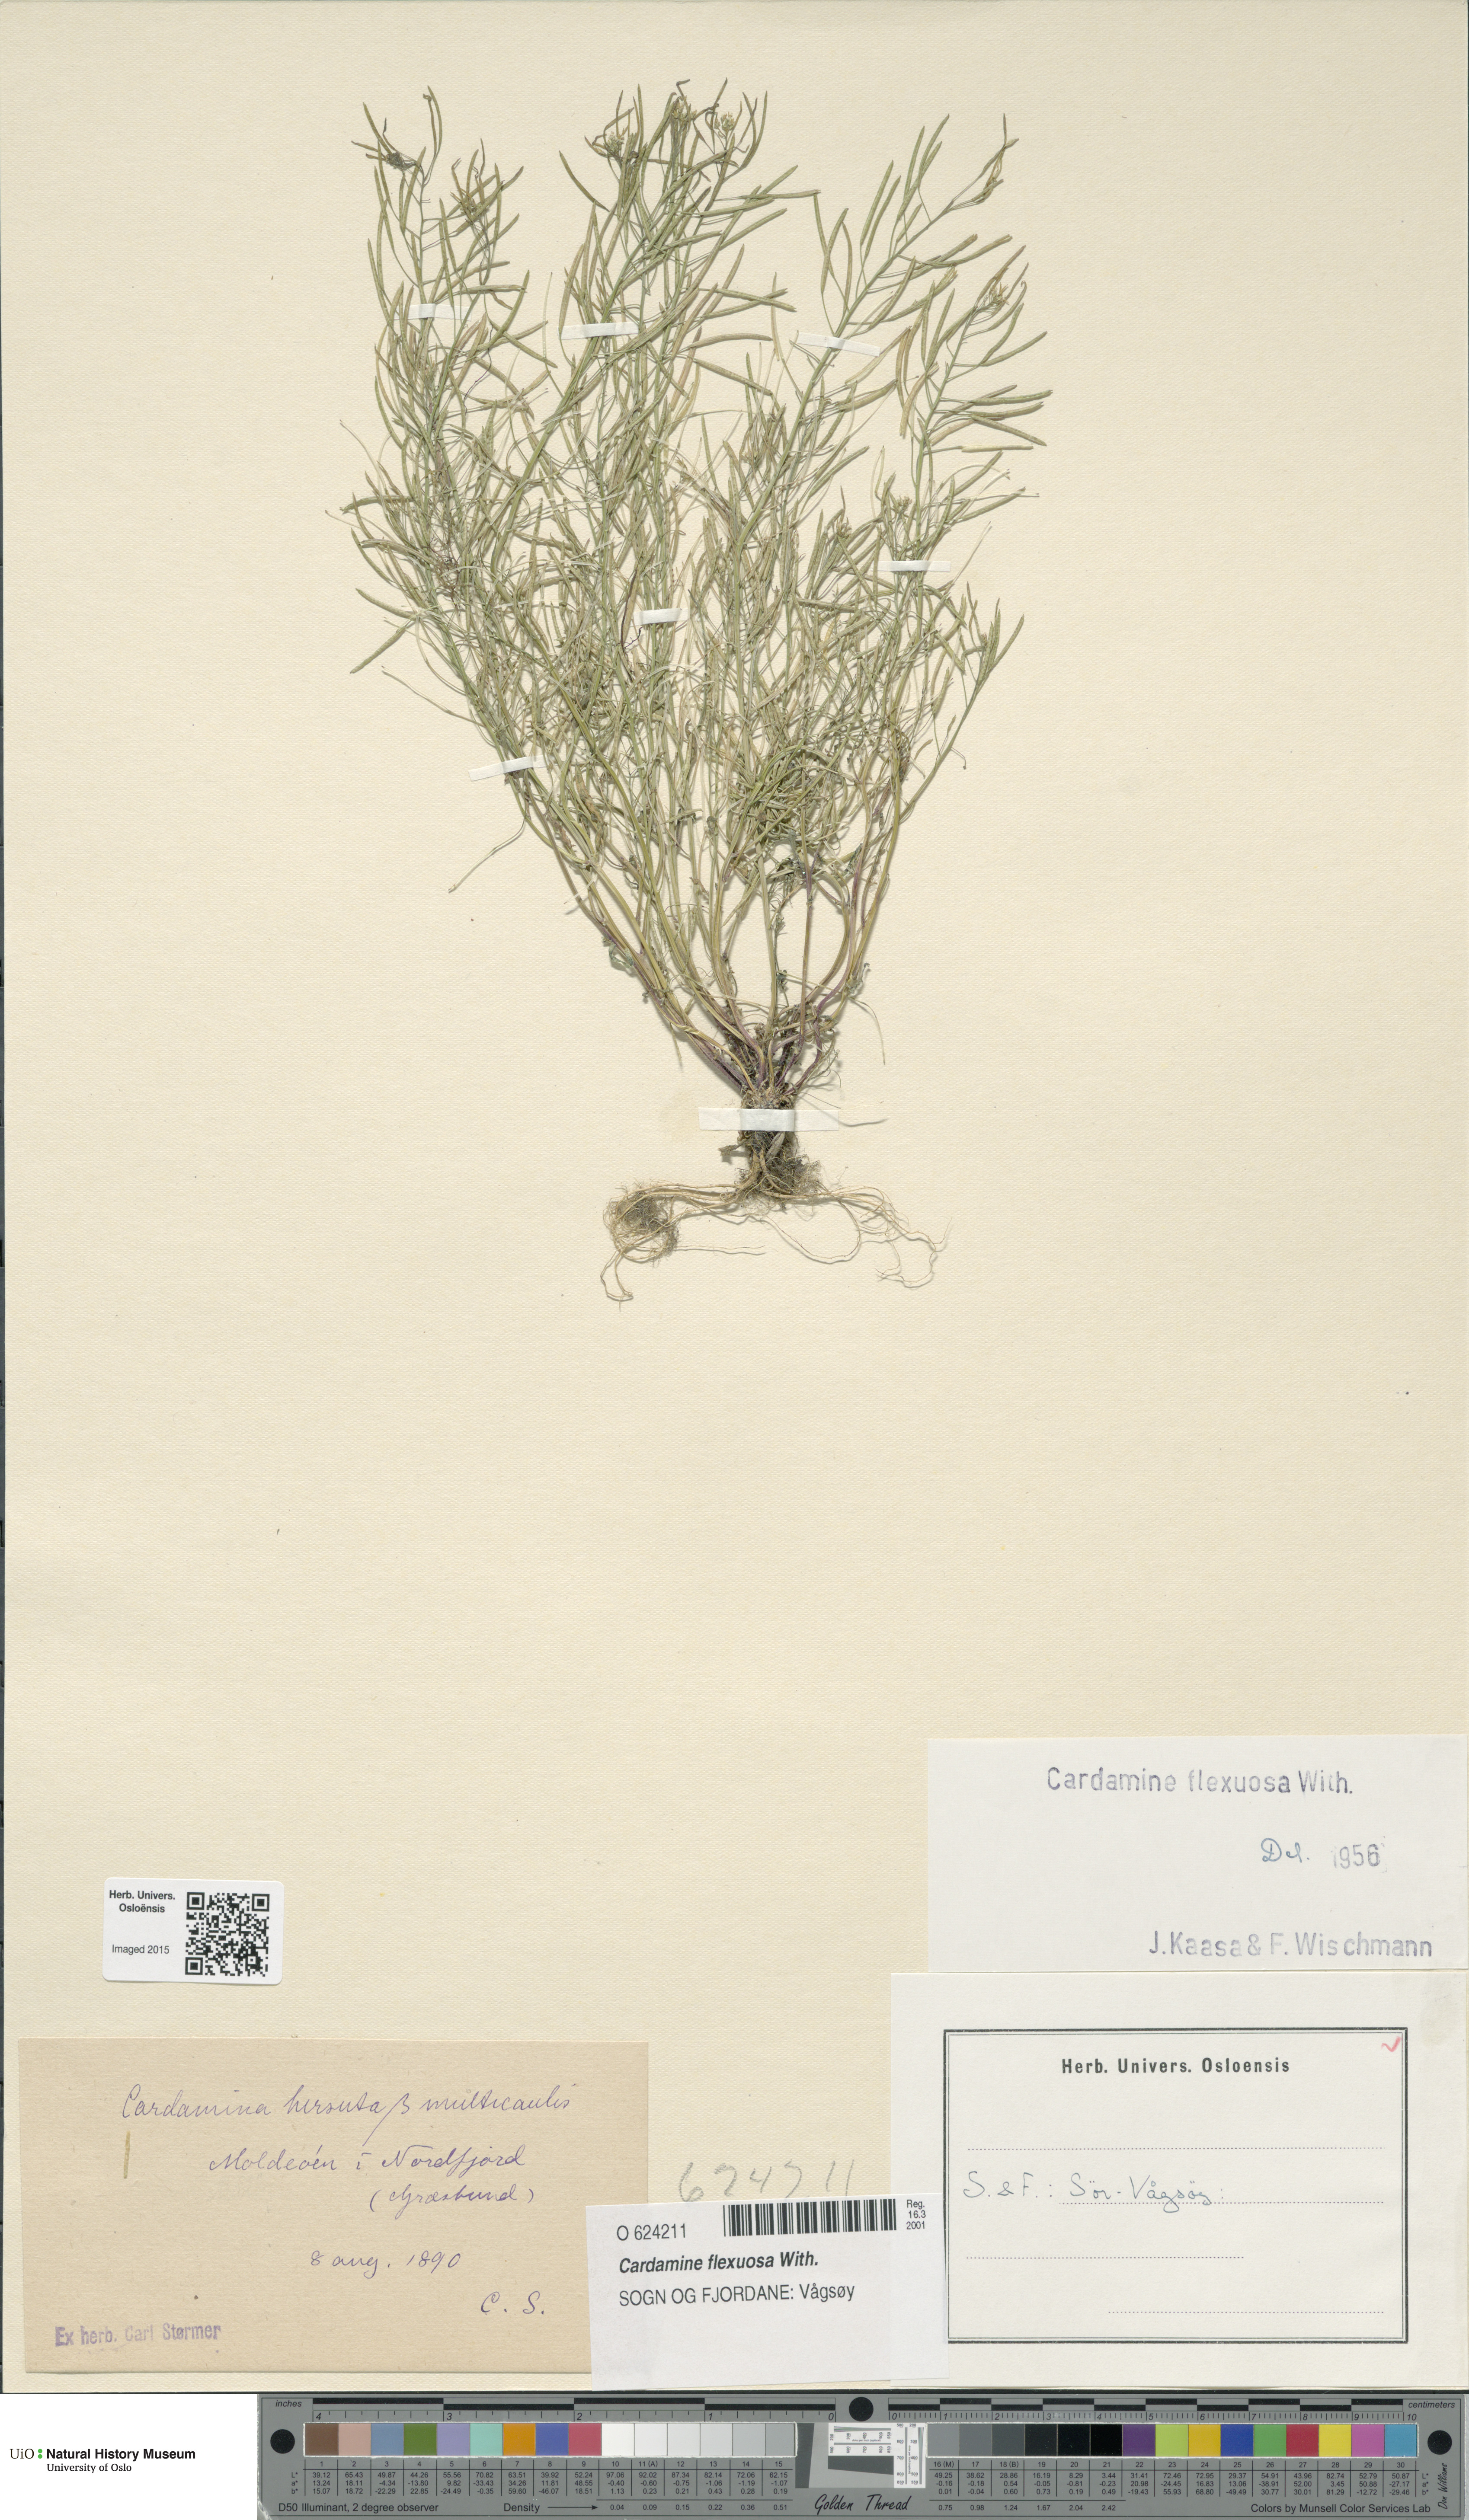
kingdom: Plantae
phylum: Tracheophyta
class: Magnoliopsida
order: Brassicales
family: Brassicaceae
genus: Cardamine
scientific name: Cardamine flexuosa
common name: Woodland bittercress
